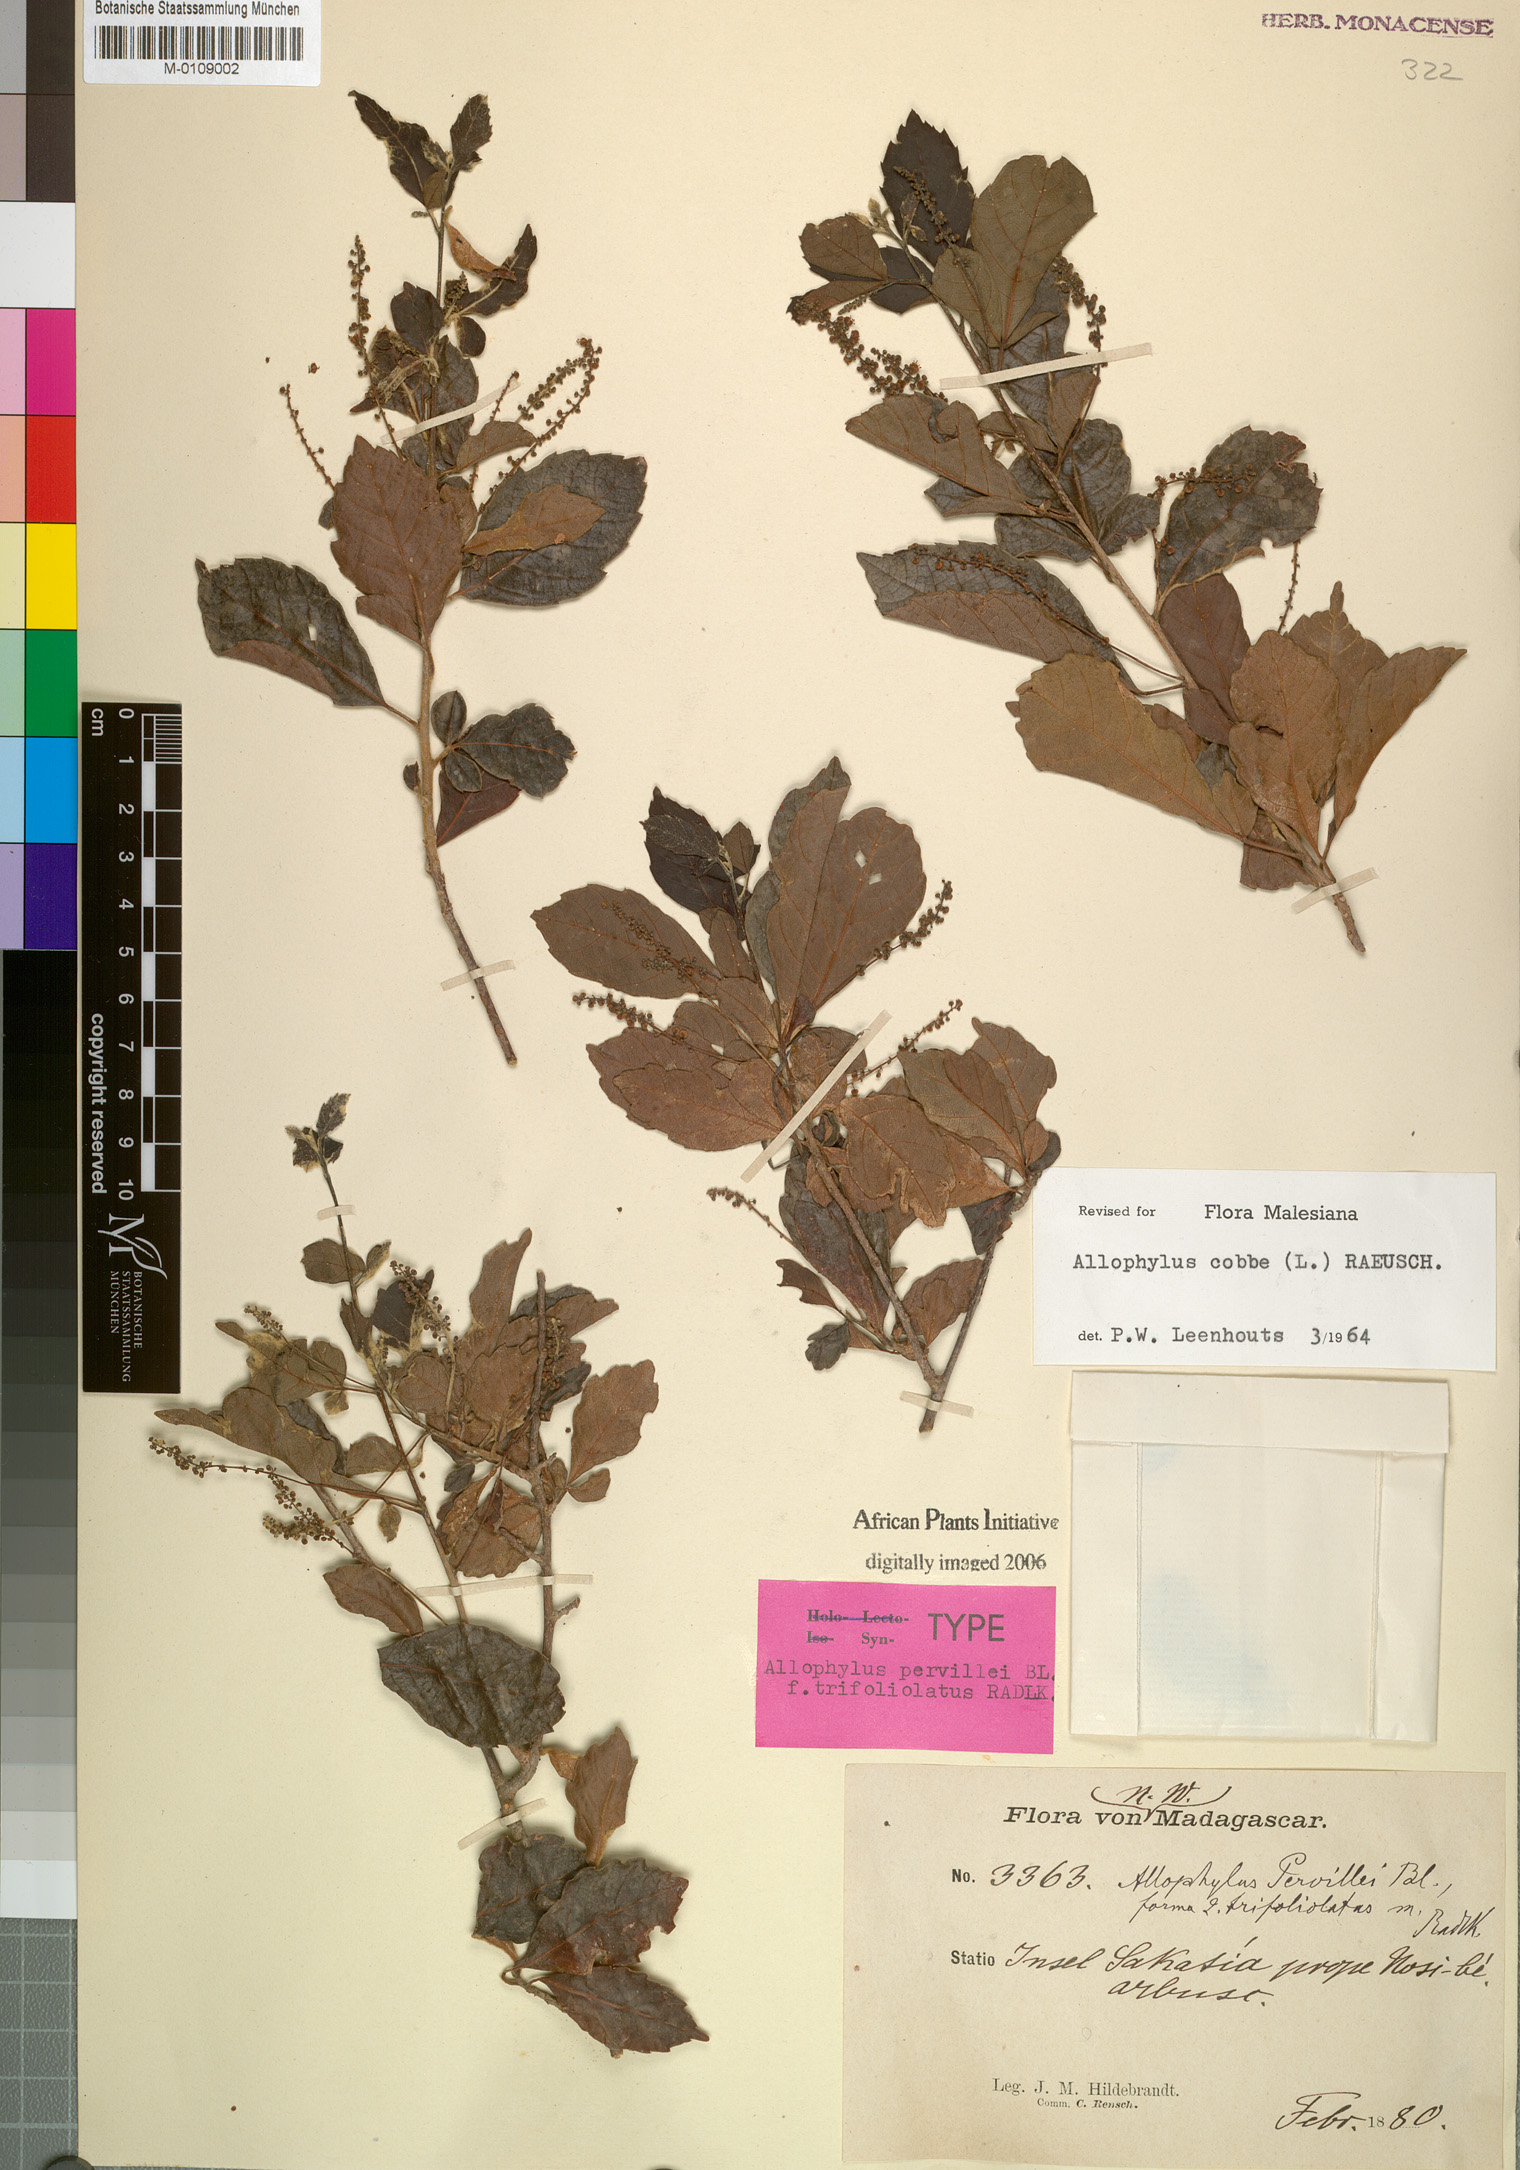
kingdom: Plantae
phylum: Tracheophyta
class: Magnoliopsida
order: Sapindales
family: Sapindaceae
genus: Allophylus
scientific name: Allophylus cobbe
